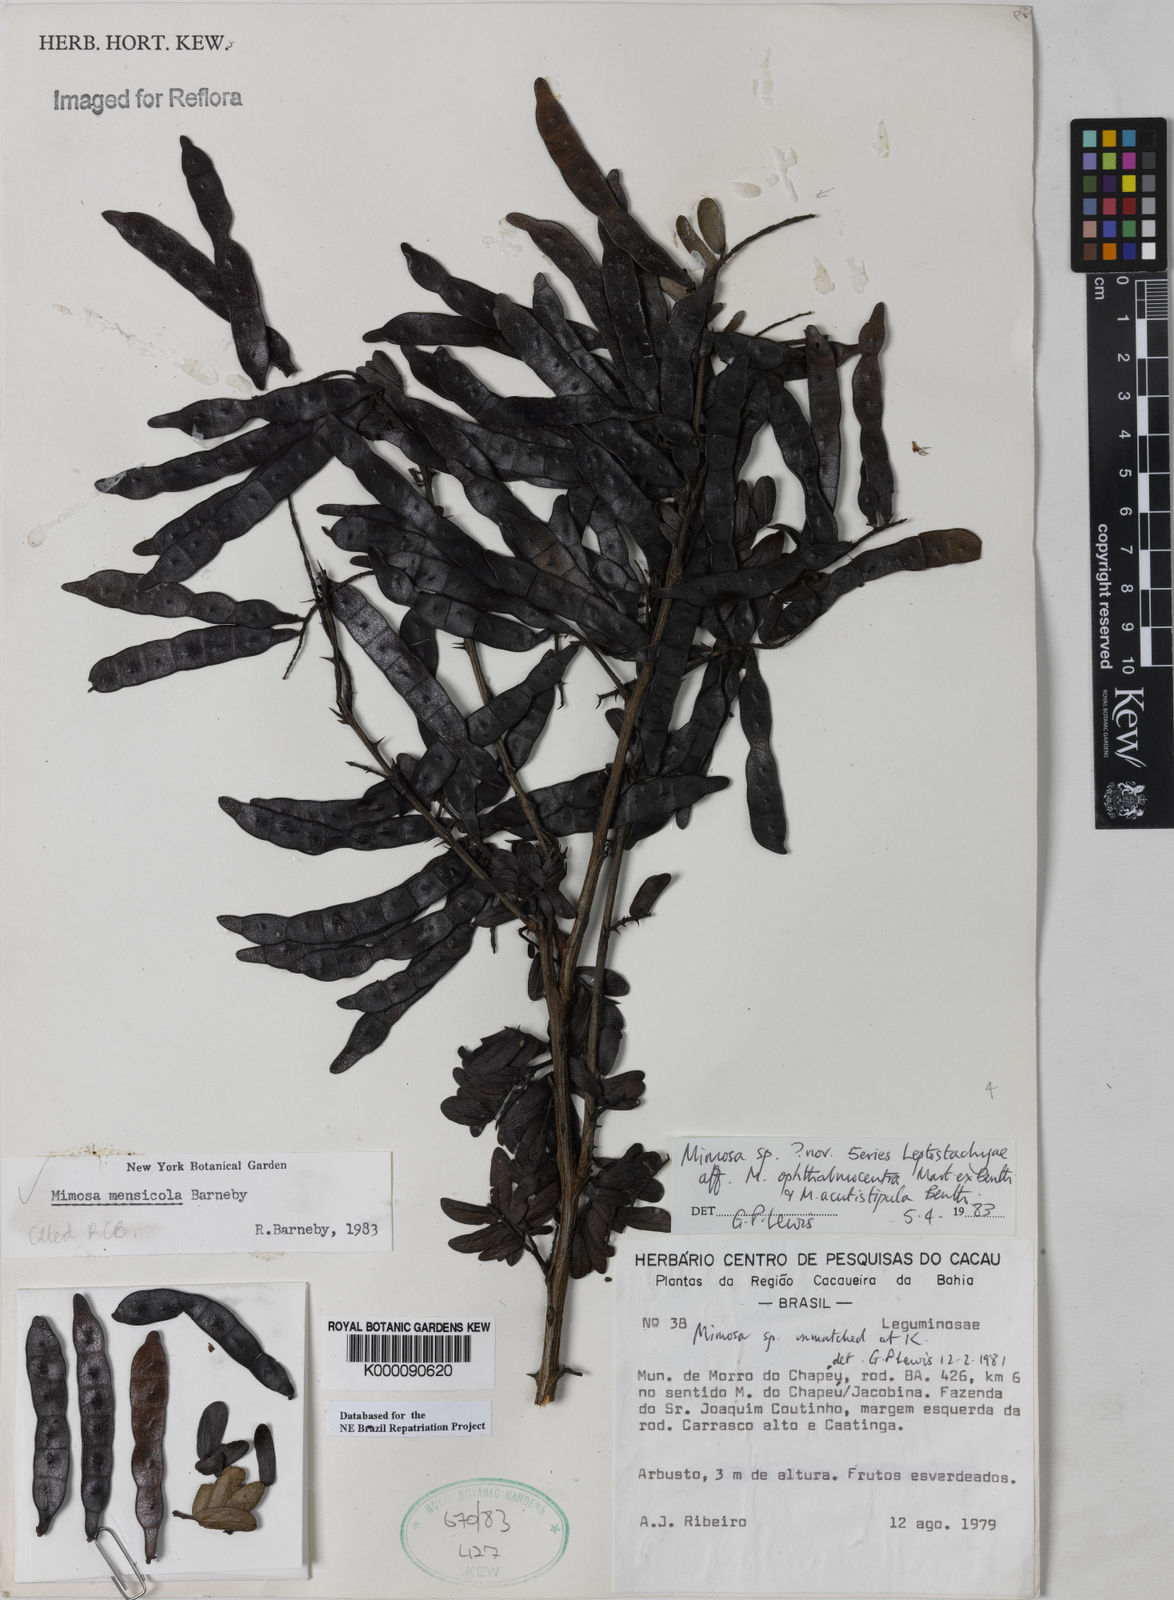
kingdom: Plantae
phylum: Tracheophyta
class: Magnoliopsida
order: Fabales
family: Fabaceae
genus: Mimosa
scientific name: Mimosa mensicola
